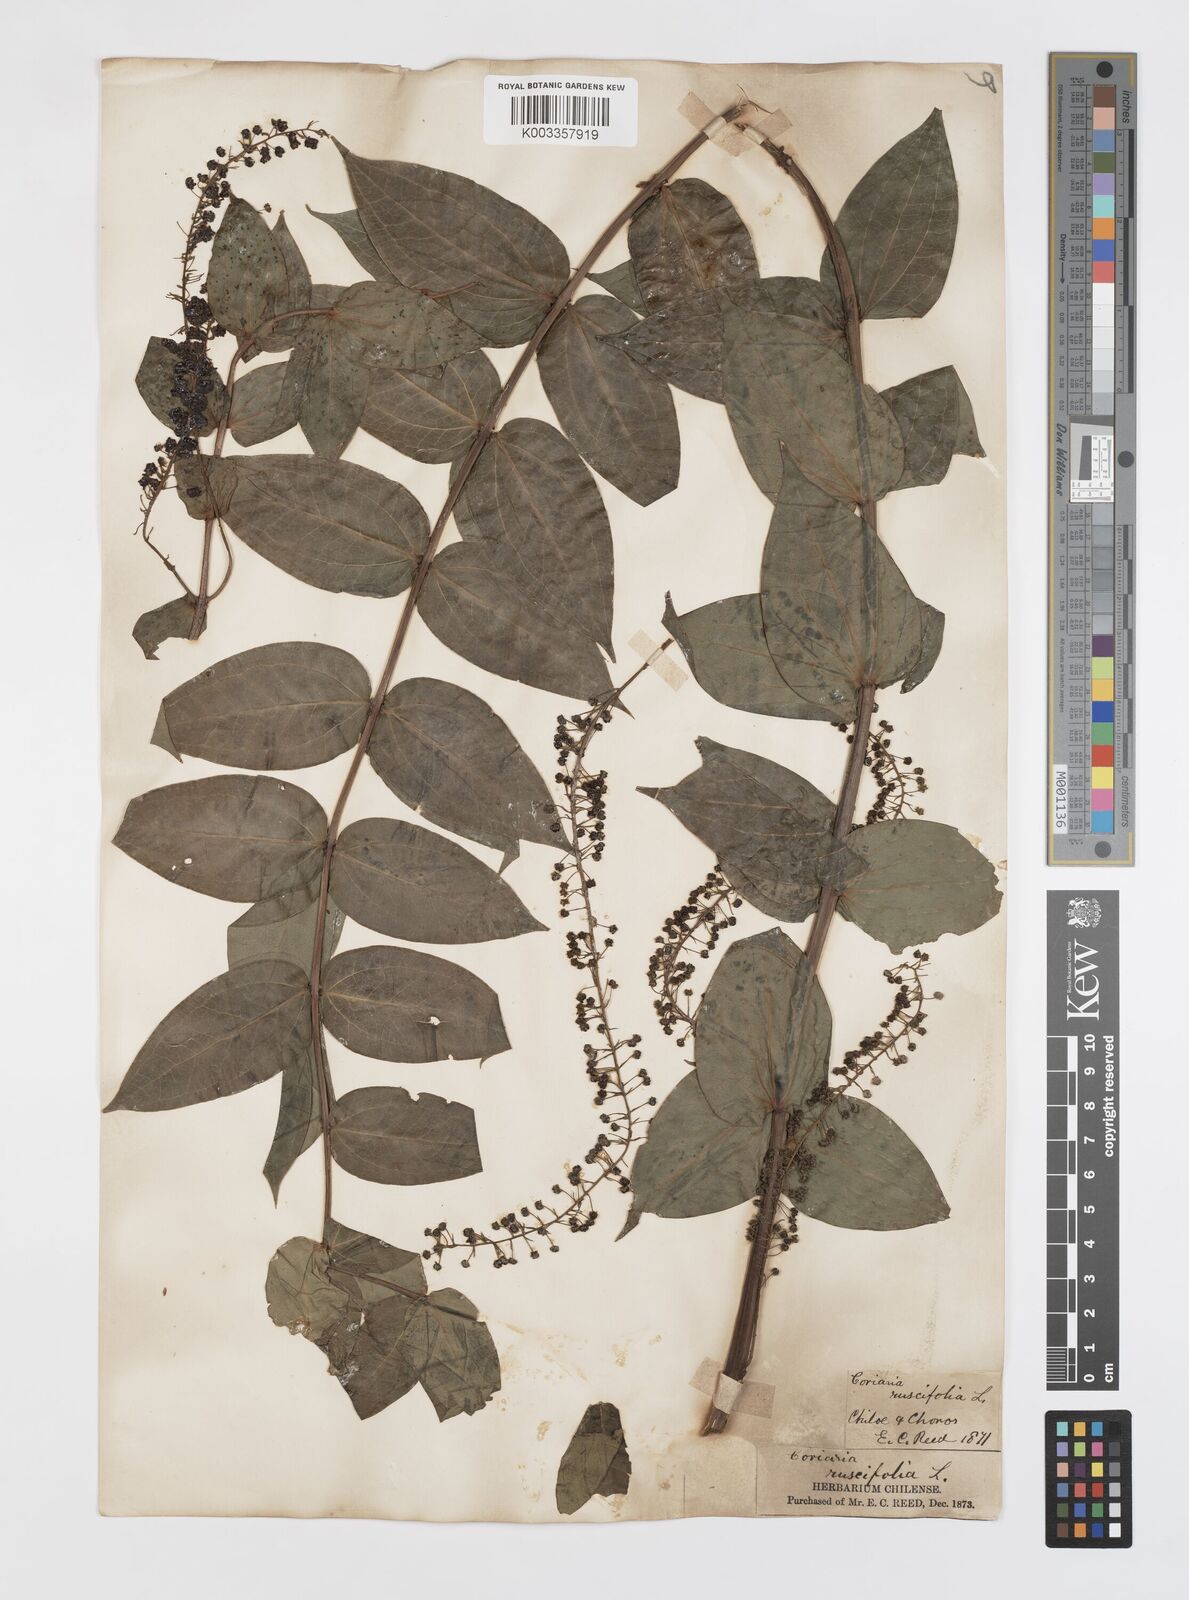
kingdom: Plantae
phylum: Tracheophyta
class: Magnoliopsida
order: Cucurbitales
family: Coriariaceae
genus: Coriaria
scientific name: Coriaria ruscifolia
